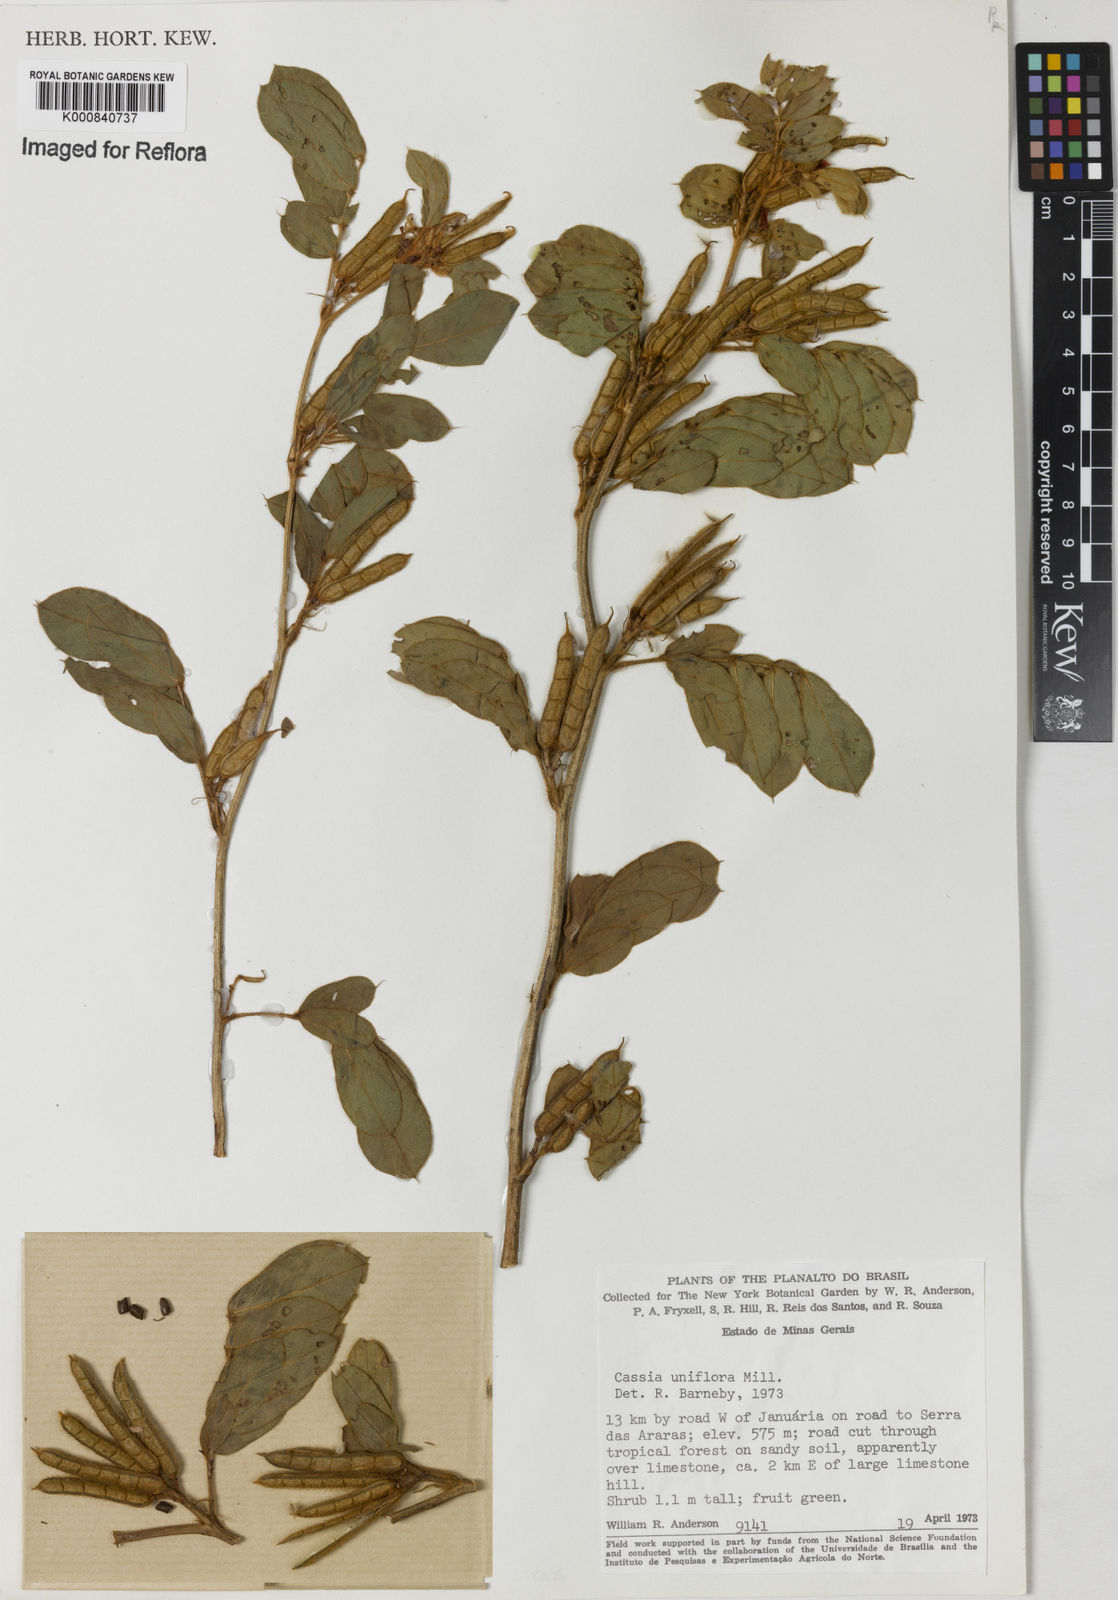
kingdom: Plantae
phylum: Tracheophyta
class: Magnoliopsida
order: Fabales
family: Fabaceae
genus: Senna
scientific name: Senna uniflora
